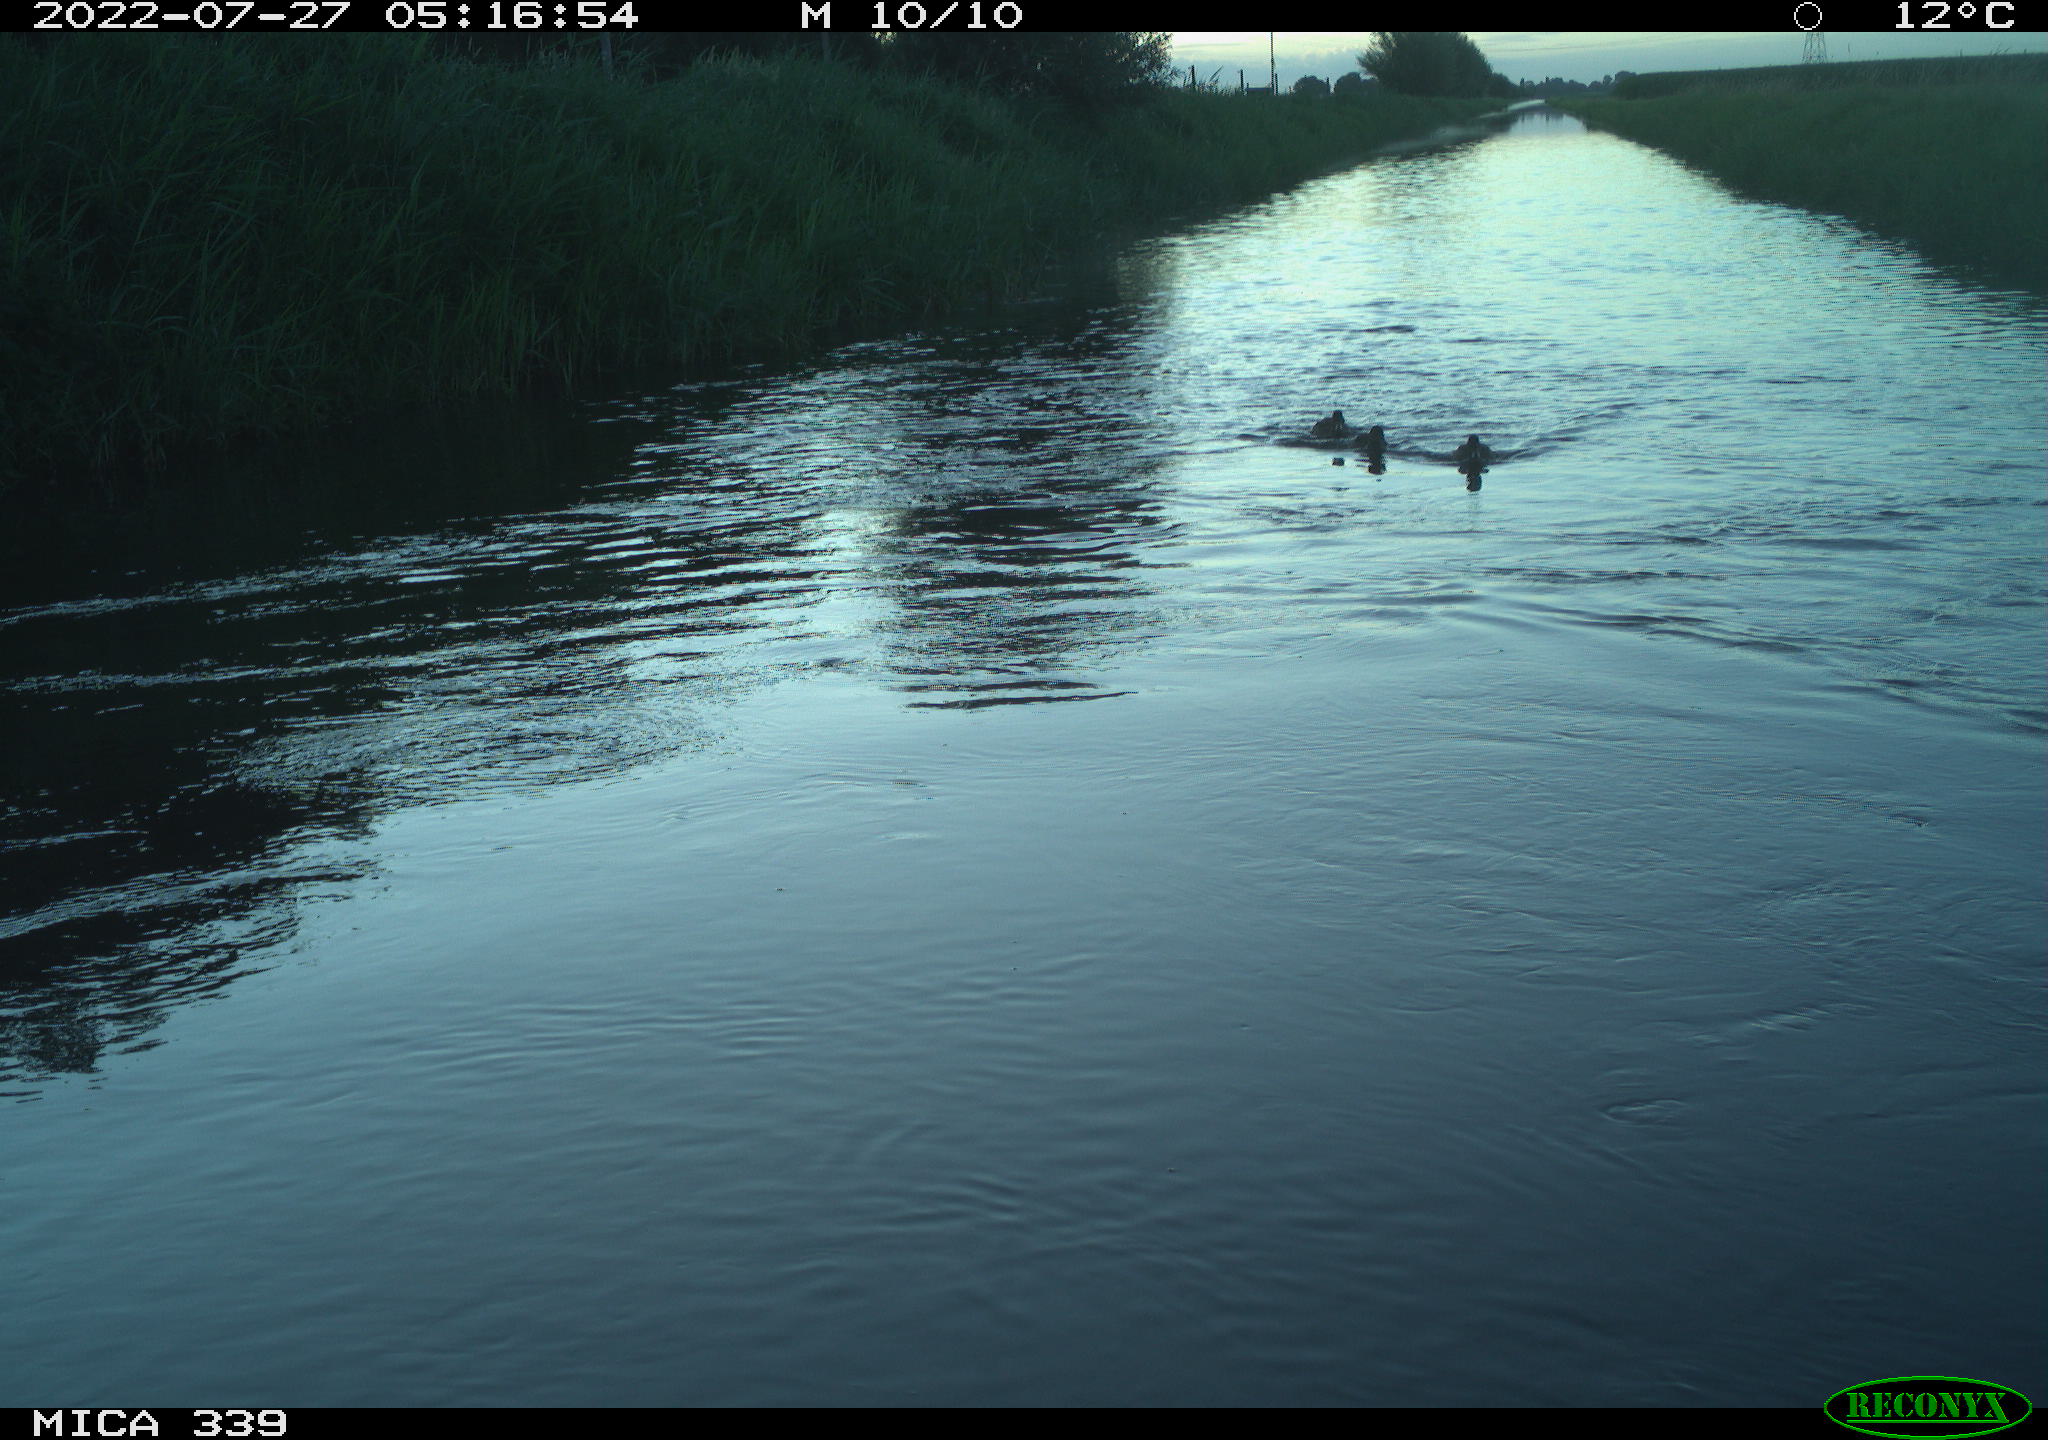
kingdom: Animalia
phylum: Chordata
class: Aves
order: Anseriformes
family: Anatidae
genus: Anas
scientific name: Anas platyrhynchos
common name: Mallard
